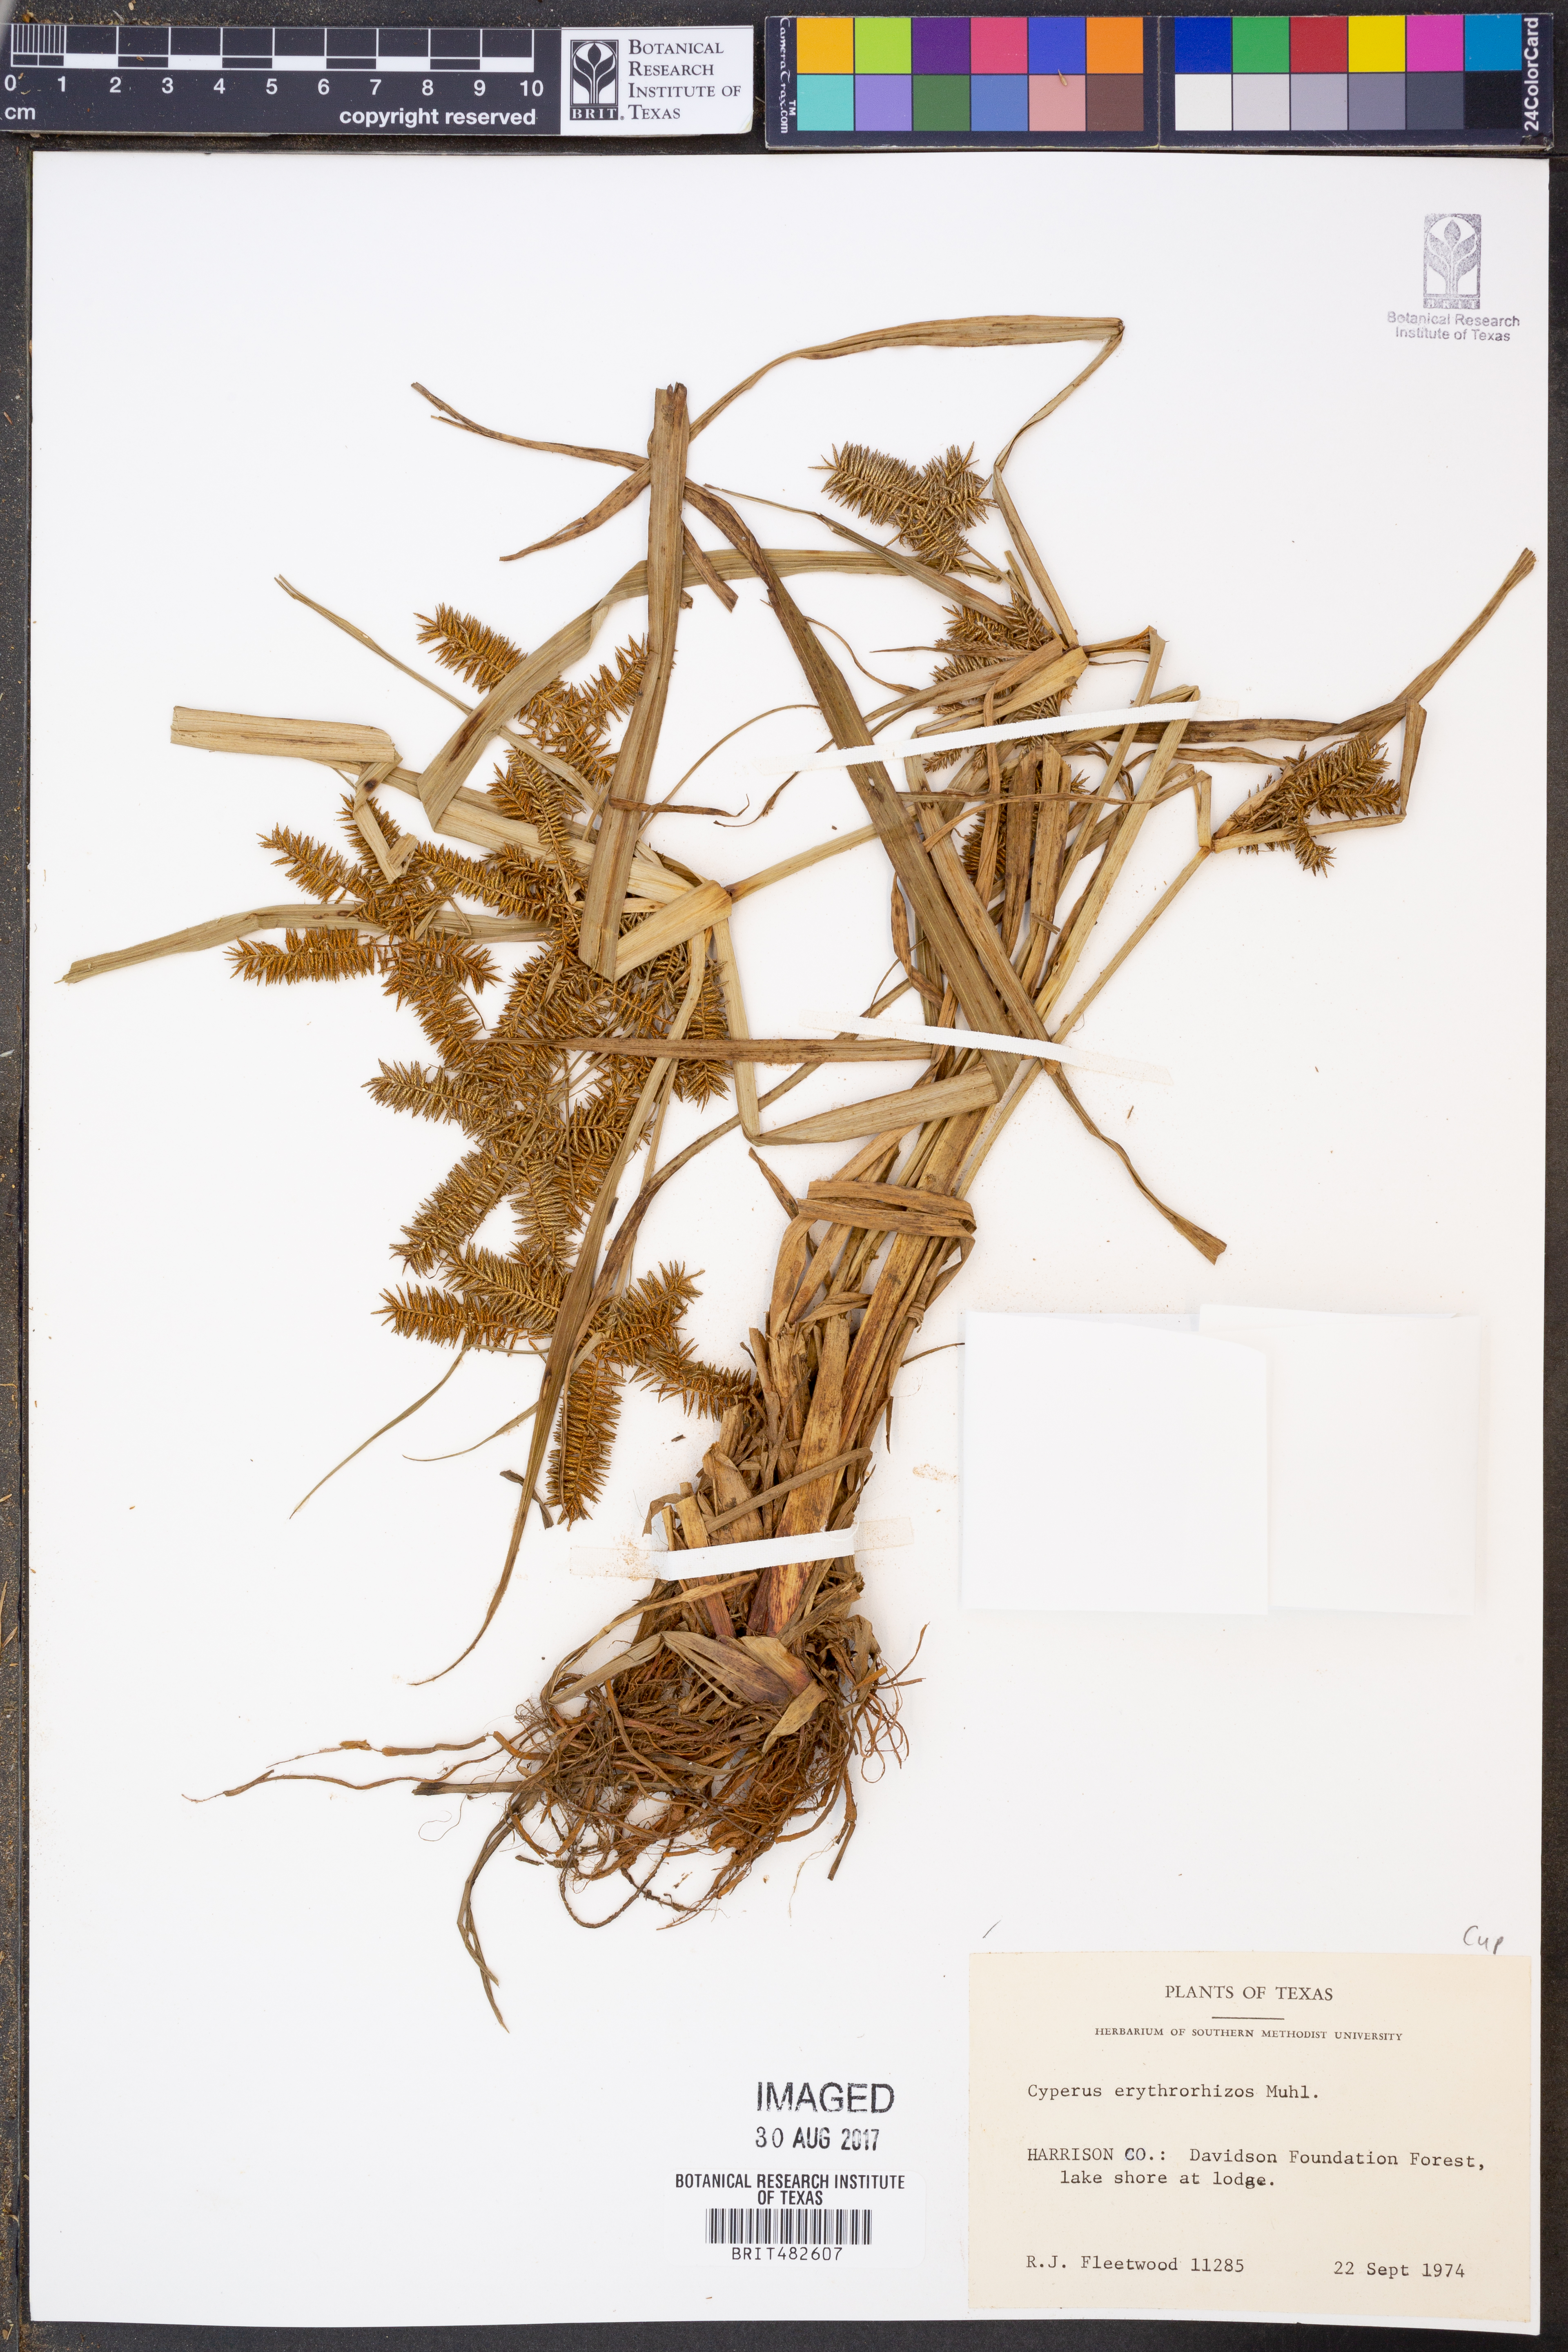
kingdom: Plantae
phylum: Tracheophyta
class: Liliopsida
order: Poales
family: Cyperaceae
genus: Cyperus
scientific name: Cyperus erythrorhizos
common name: Red-root flat sedge
